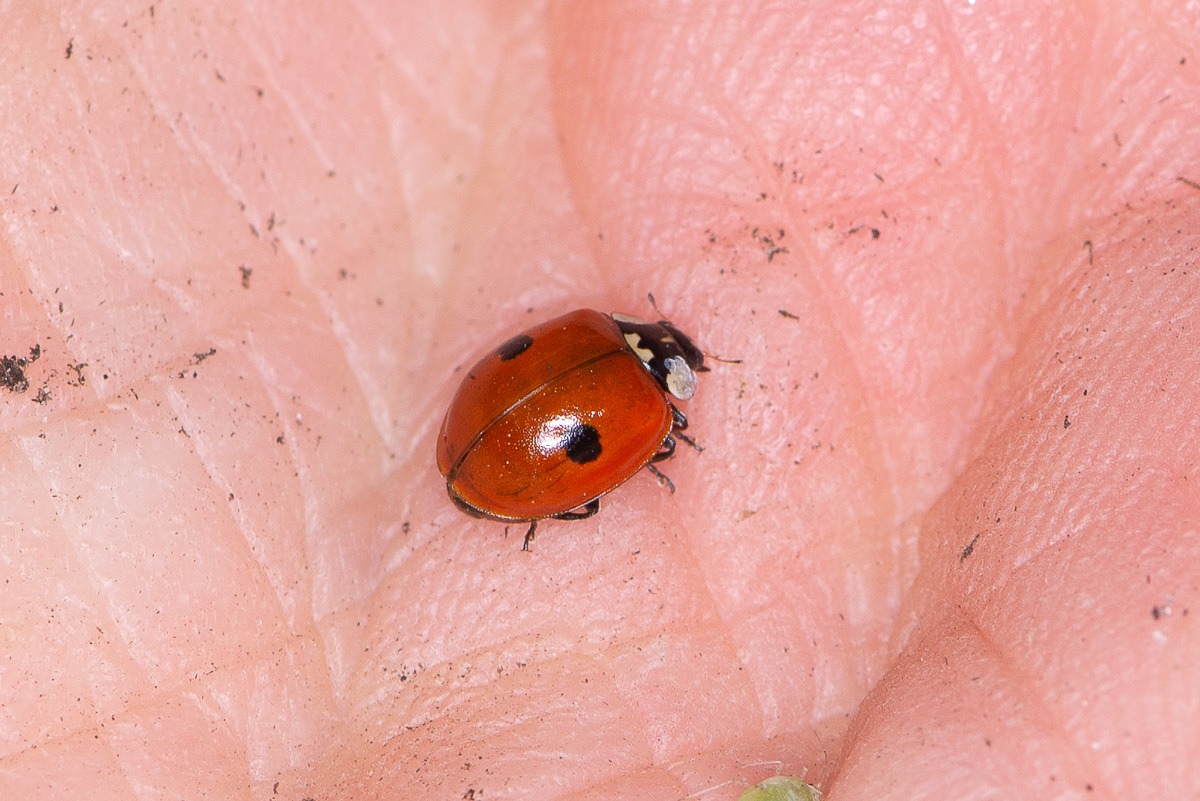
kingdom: Animalia
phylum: Arthropoda
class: Insecta
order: Coleoptera
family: Coccinellidae
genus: Adalia
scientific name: Adalia bipunctata
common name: Toplettet mariehøne
